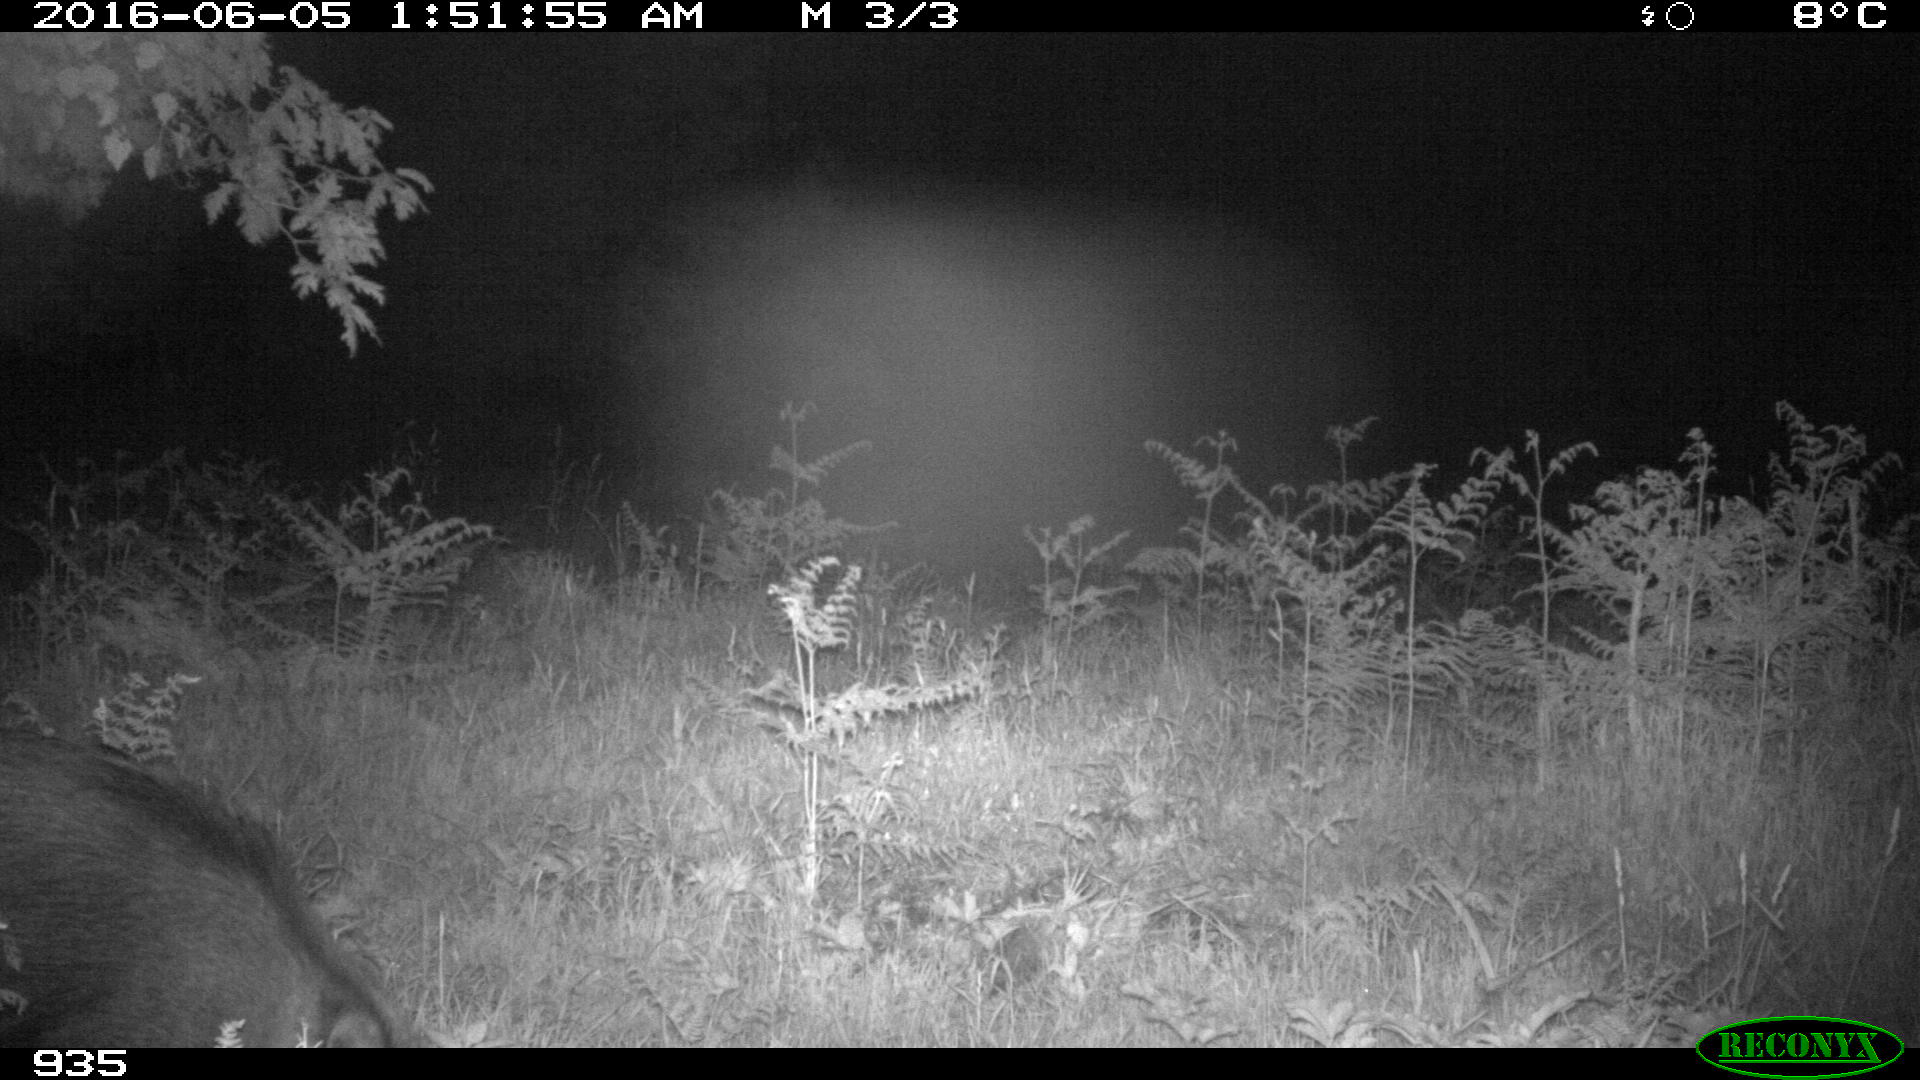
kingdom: Animalia
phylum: Chordata
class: Mammalia
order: Artiodactyla
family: Suidae
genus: Sus
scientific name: Sus scrofa
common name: Wild boar
